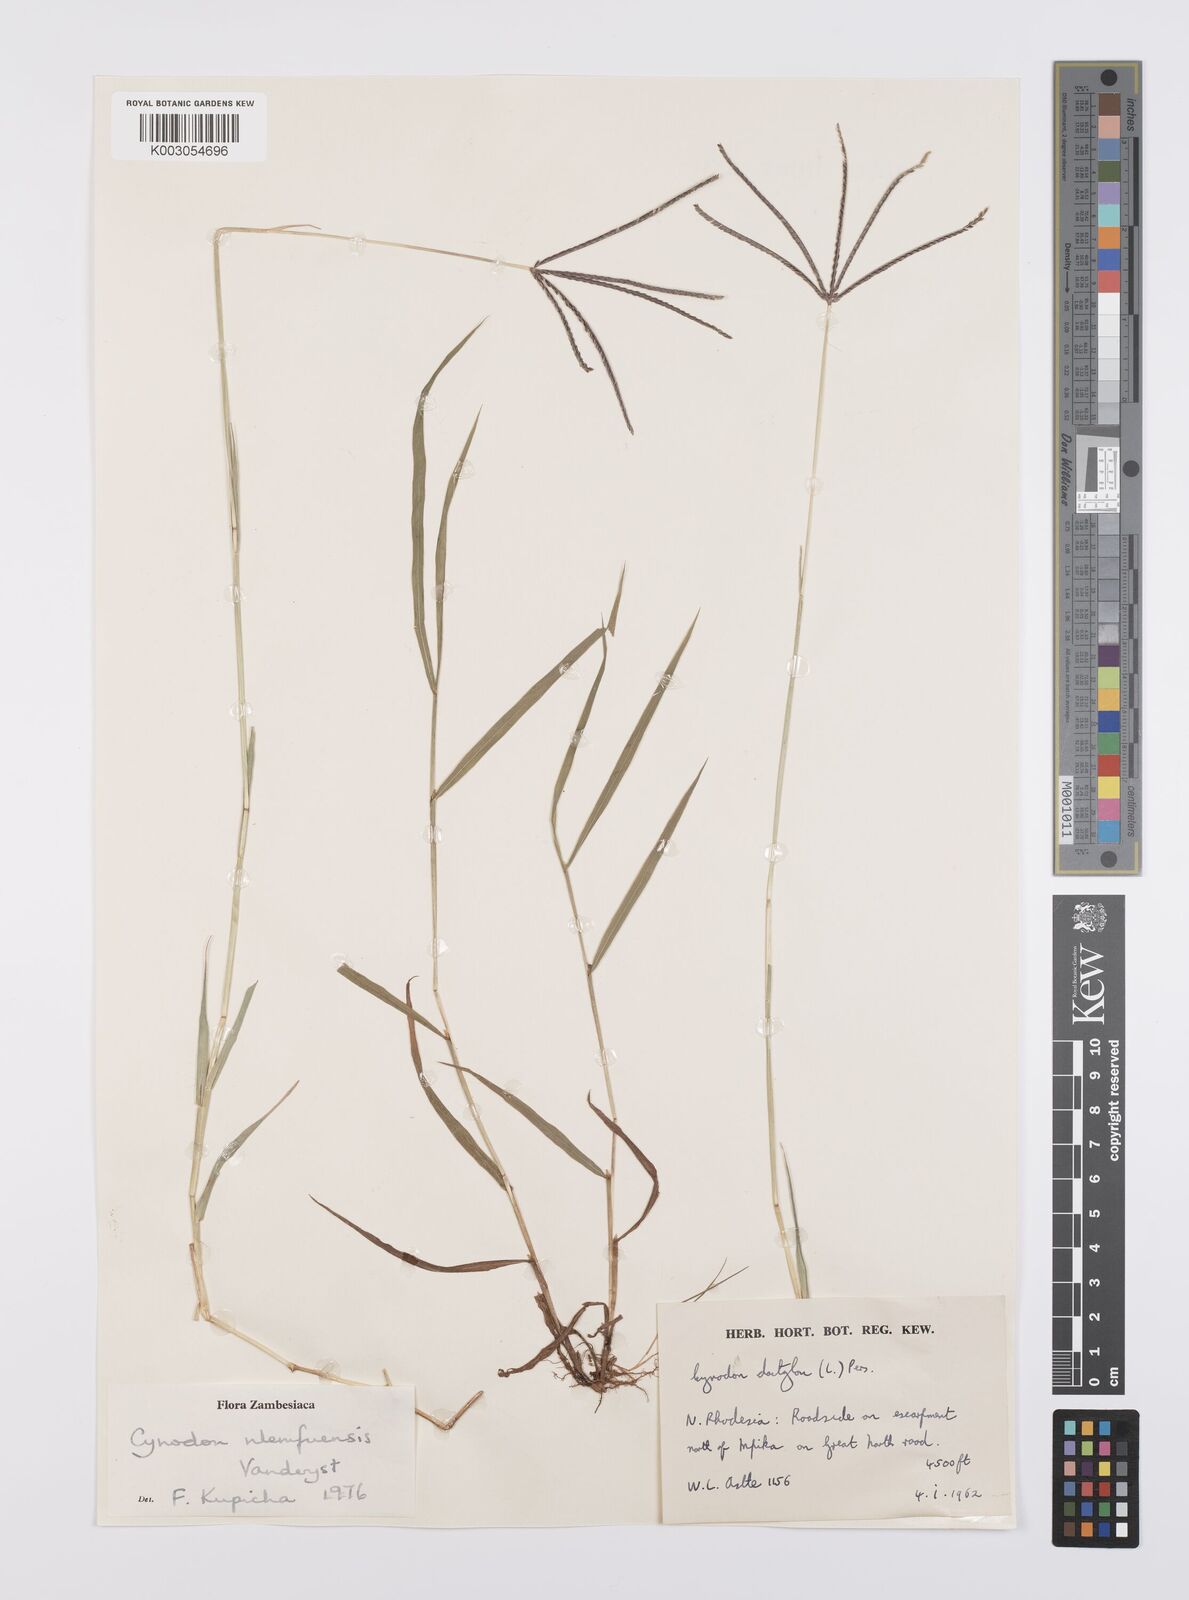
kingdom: Plantae
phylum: Tracheophyta
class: Liliopsida
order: Poales
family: Poaceae
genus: Cynodon
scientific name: Cynodon nlemfuensis
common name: African bermudagrass
